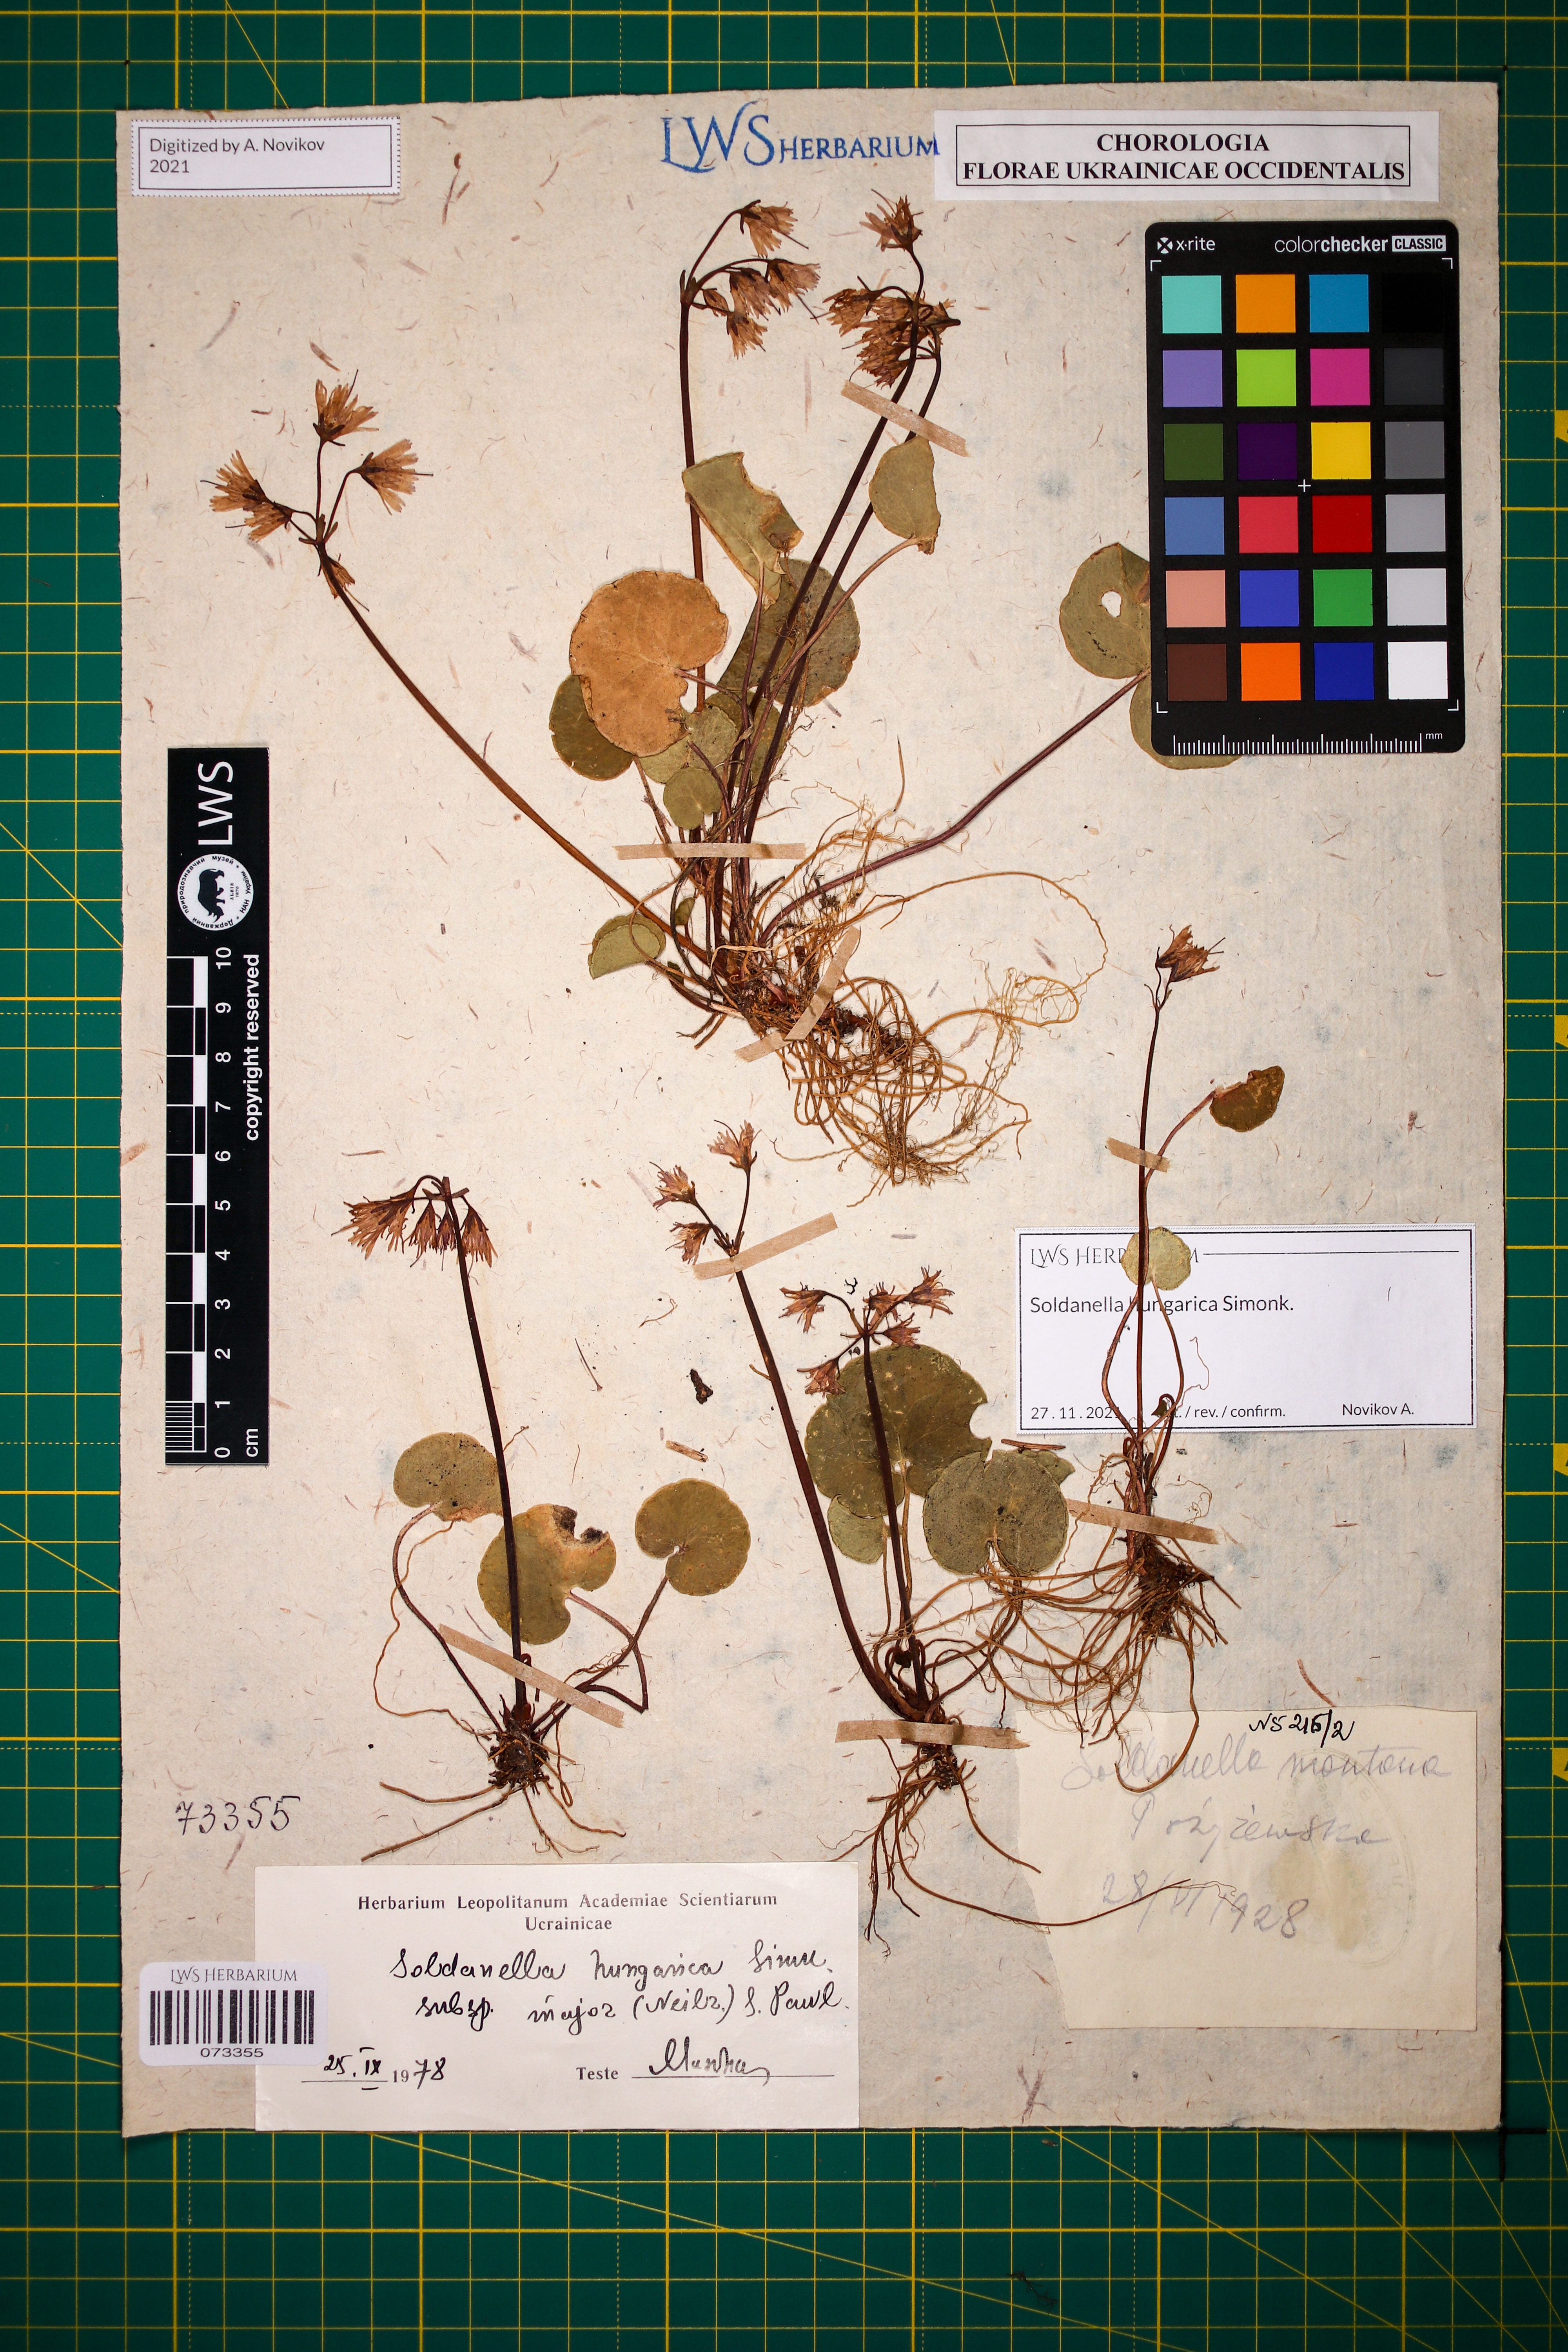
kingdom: Plantae
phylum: Tracheophyta
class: Magnoliopsida
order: Ericales
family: Primulaceae
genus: Soldanella
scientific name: Soldanella hungarica
